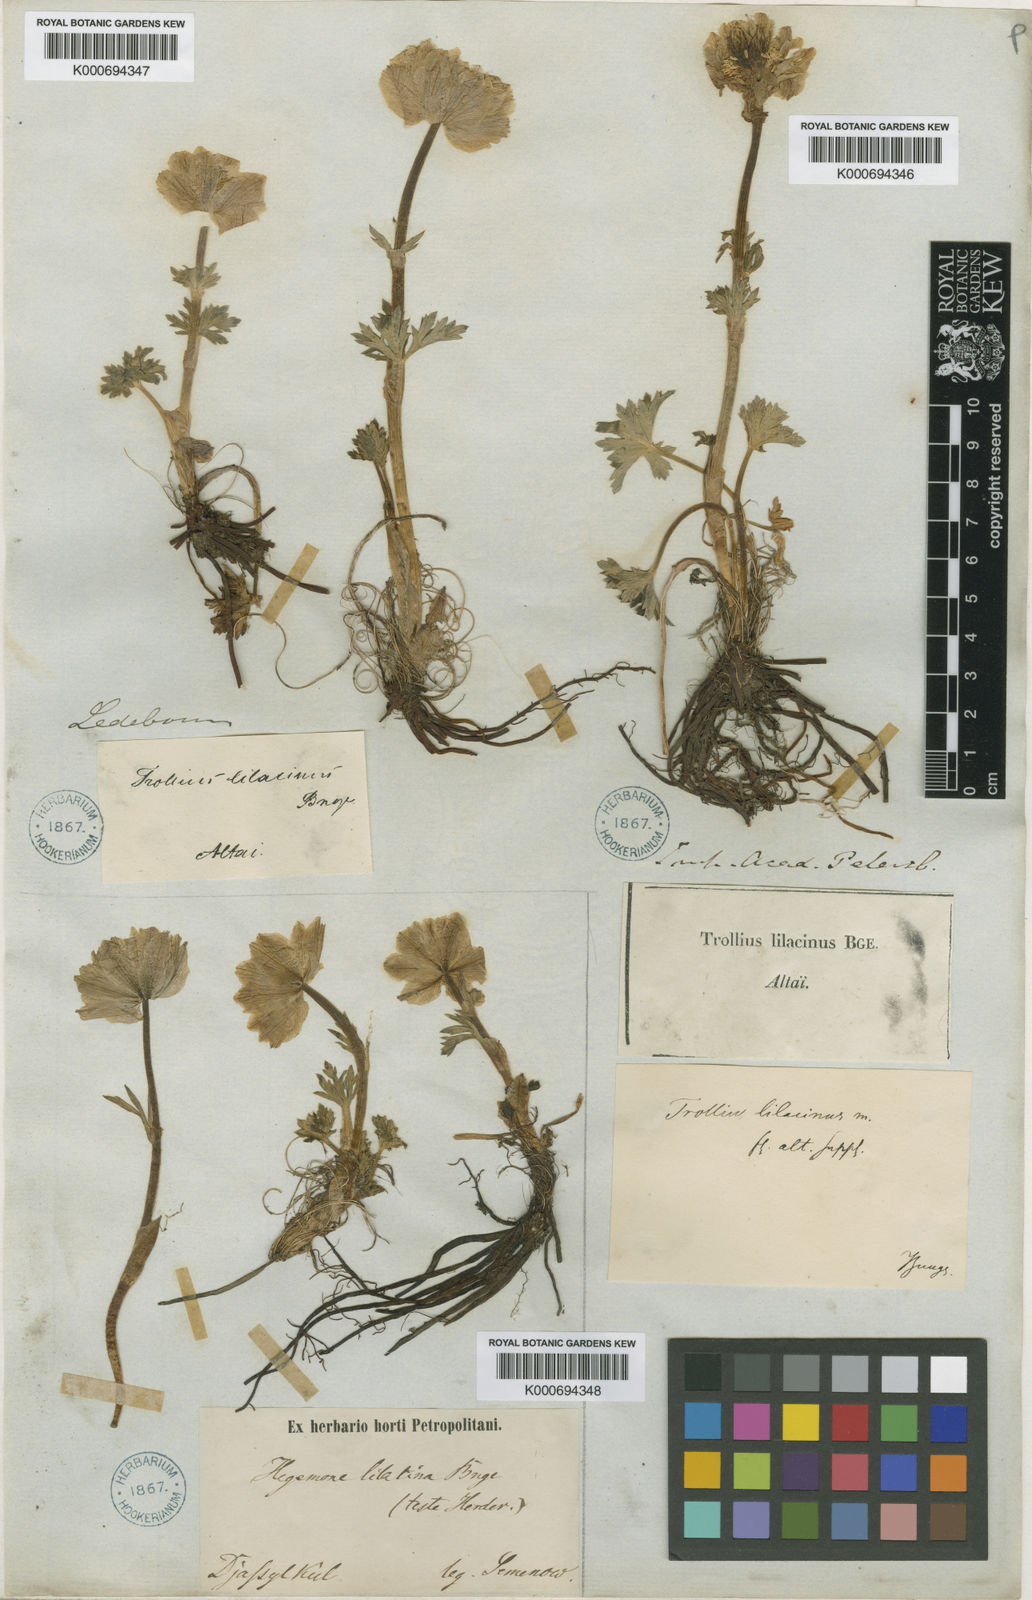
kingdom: Plantae
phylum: Tracheophyta
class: Magnoliopsida
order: Ranunculales
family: Ranunculaceae
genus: Trollius
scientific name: Trollius lilacinus
